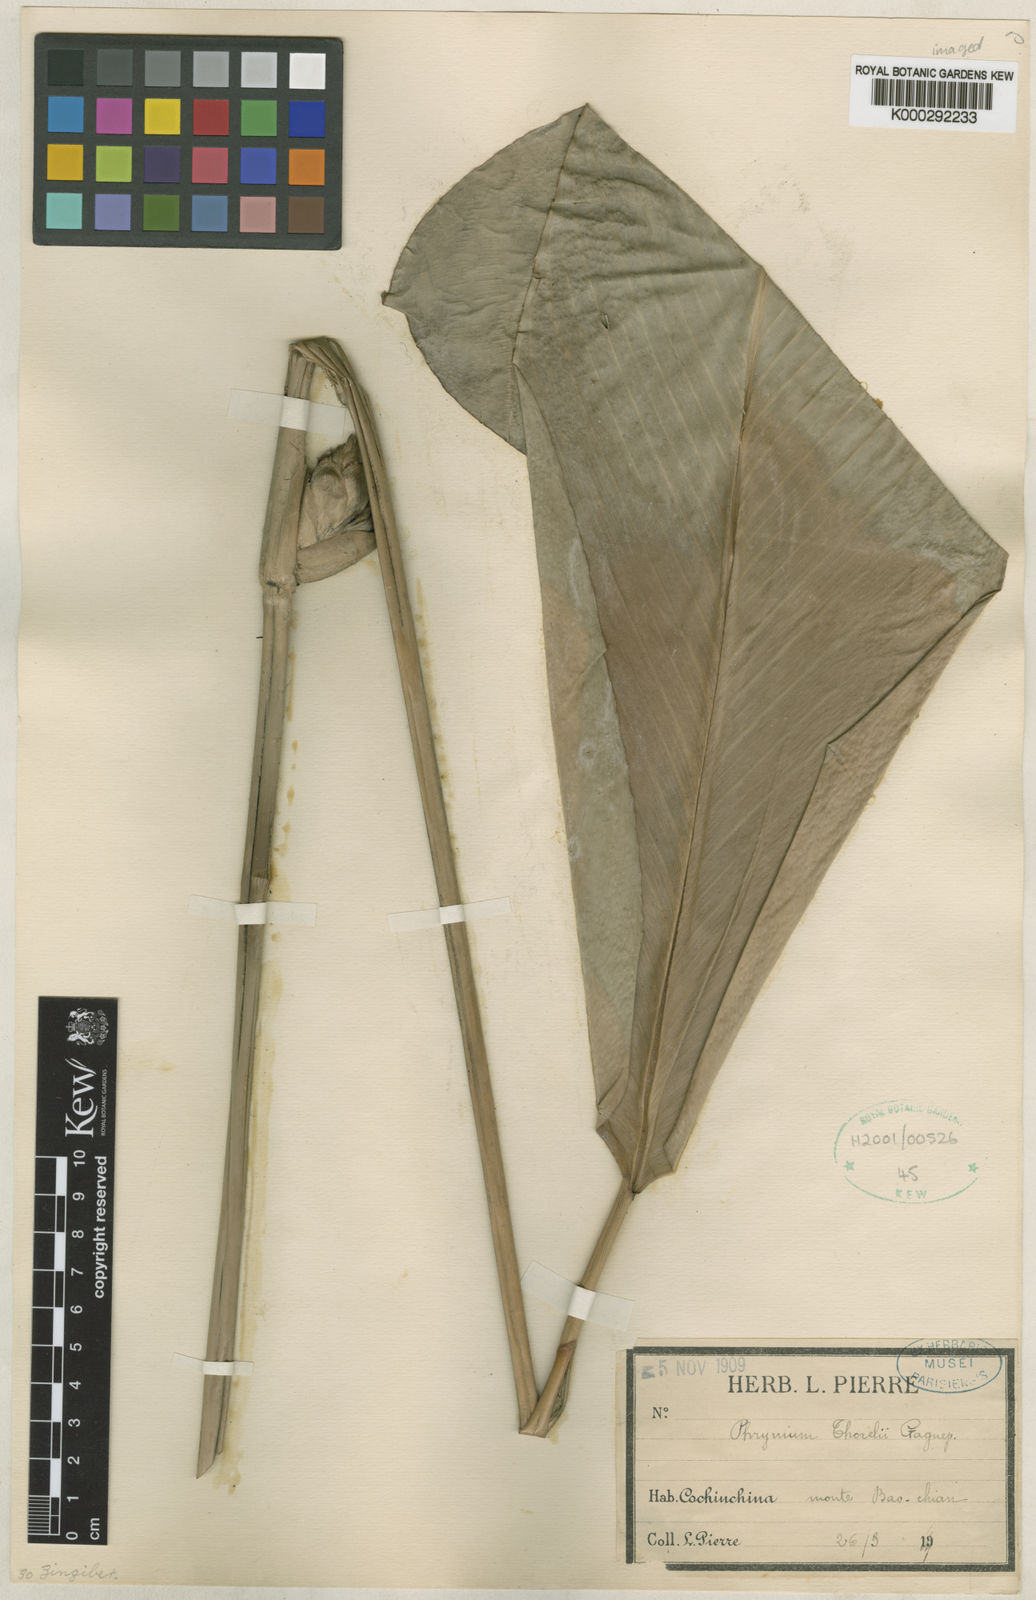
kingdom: Plantae
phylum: Tracheophyta
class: Liliopsida
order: Zingiberales
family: Marantaceae
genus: Phrynium
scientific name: Phrynium pubinerve
